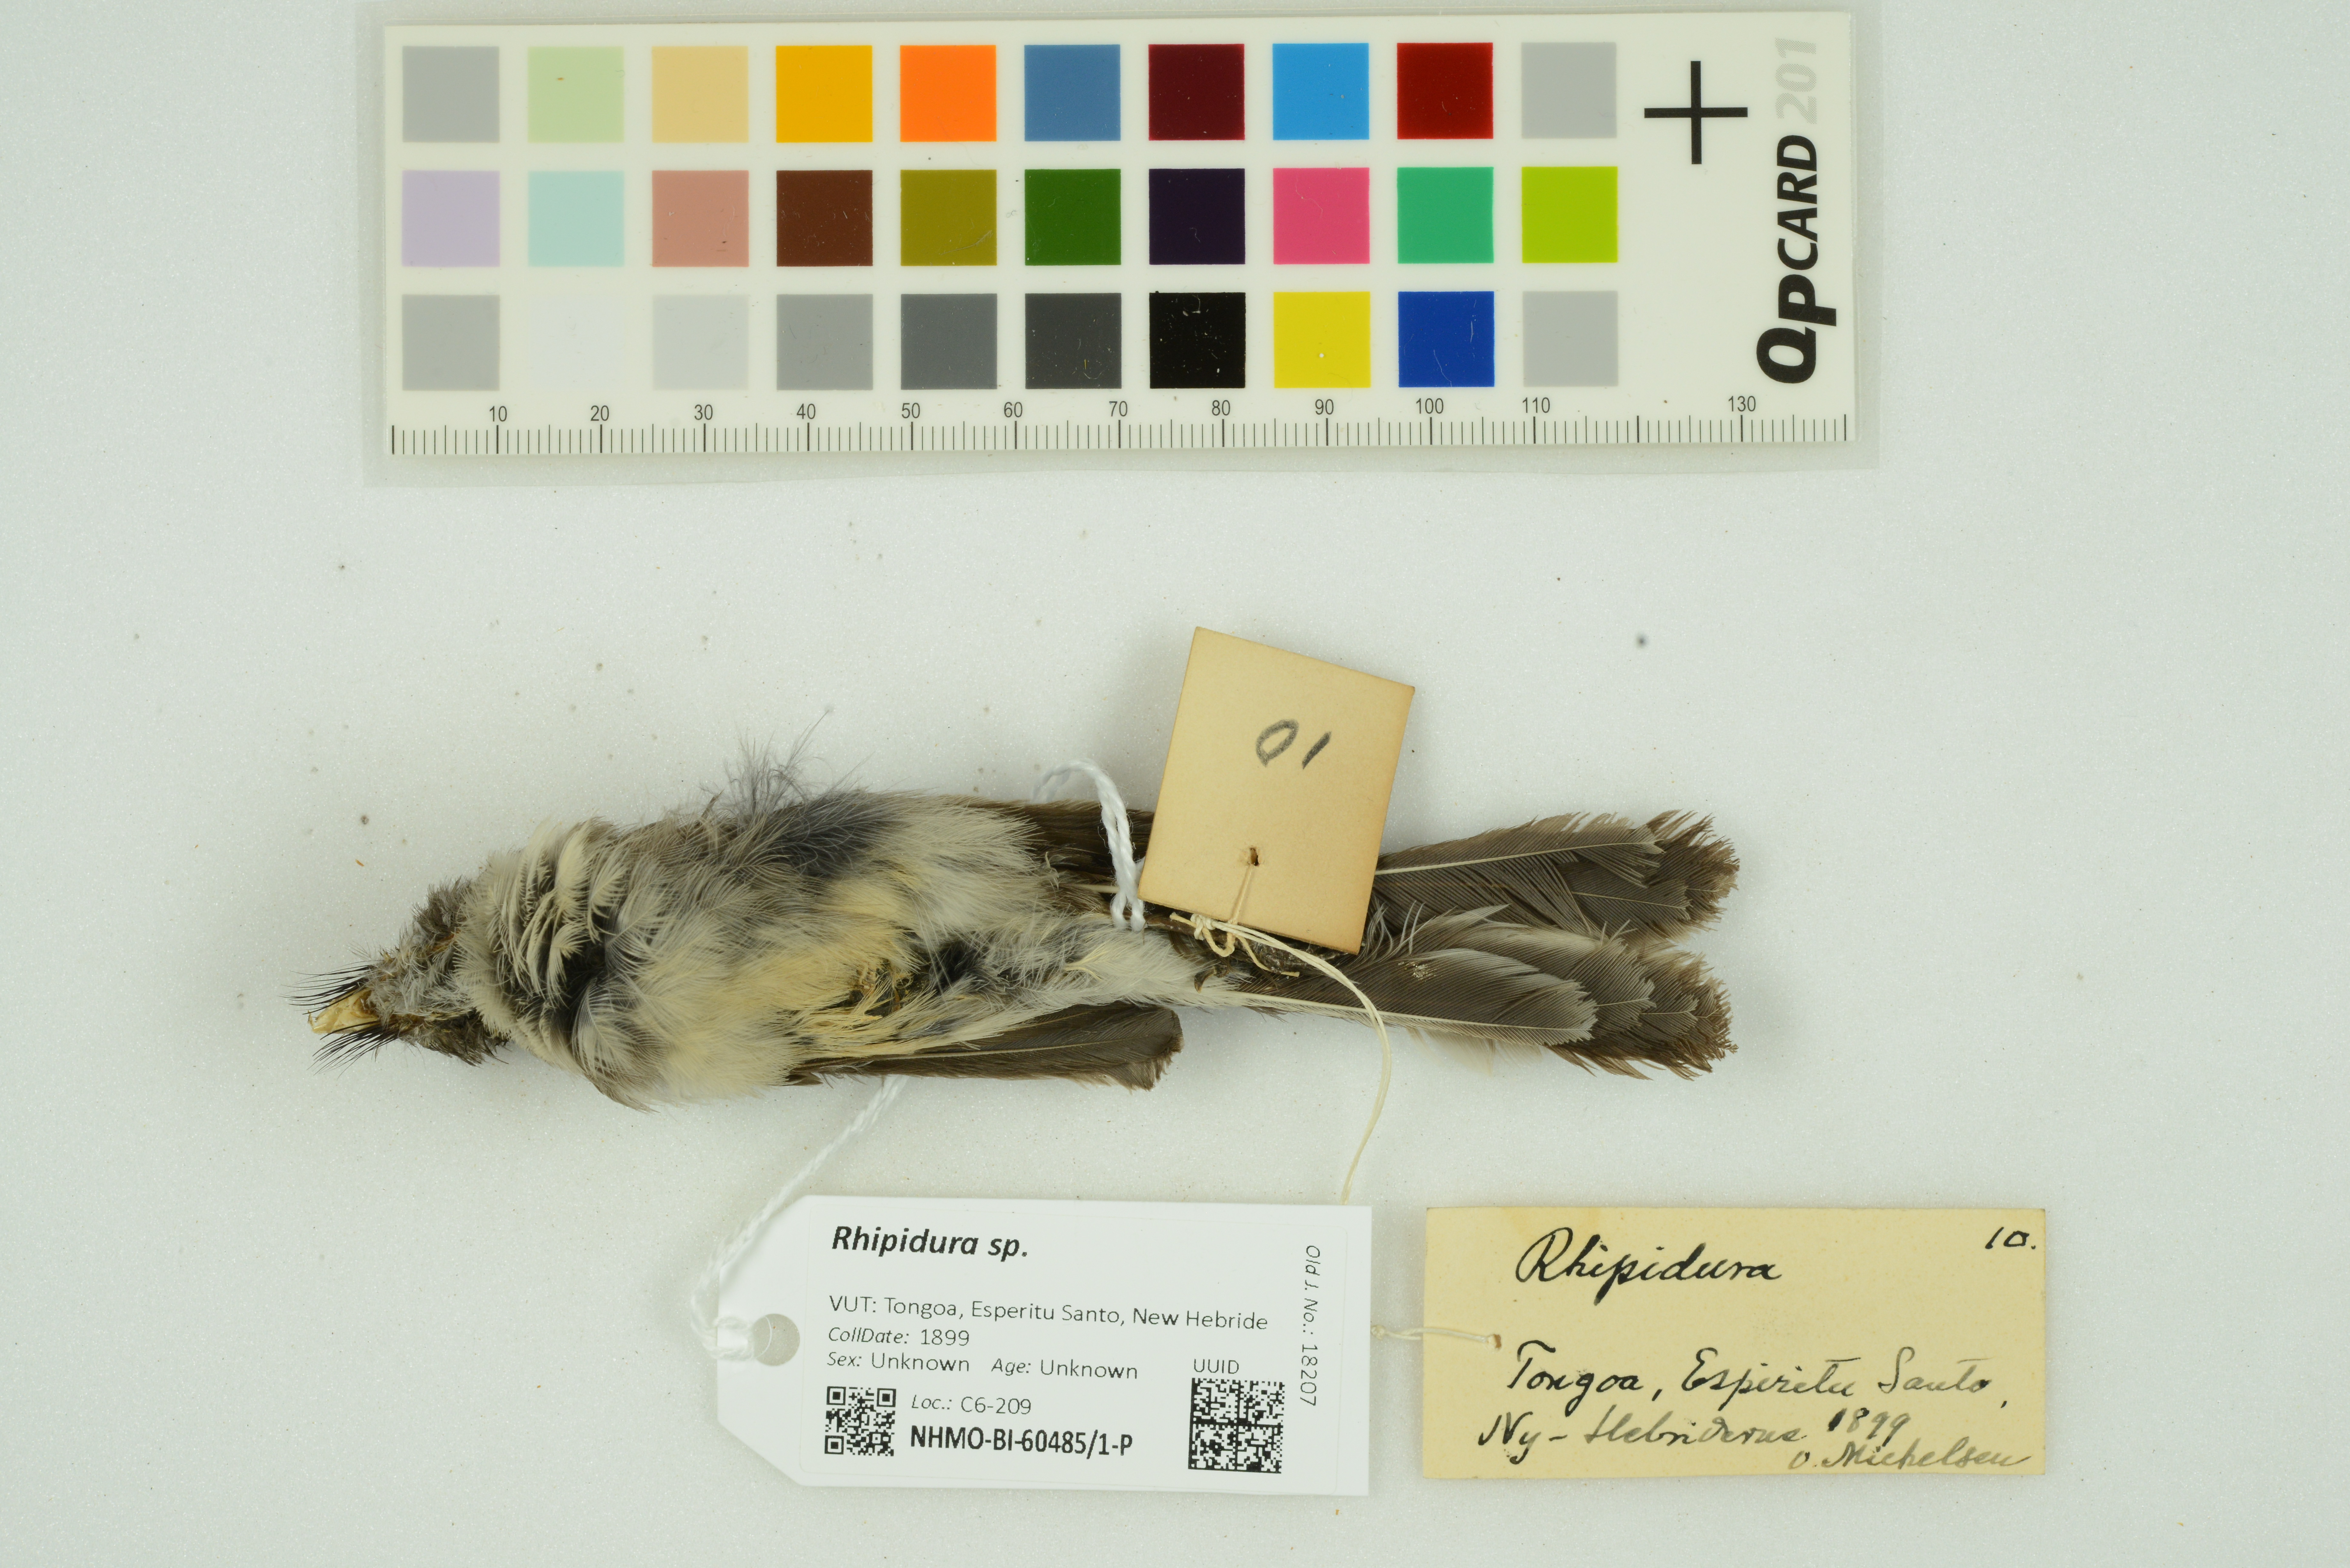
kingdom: Animalia
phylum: Chordata
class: Aves
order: Passeriformes
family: Rhipiduridae
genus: Rhipidura
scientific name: Rhipidura
